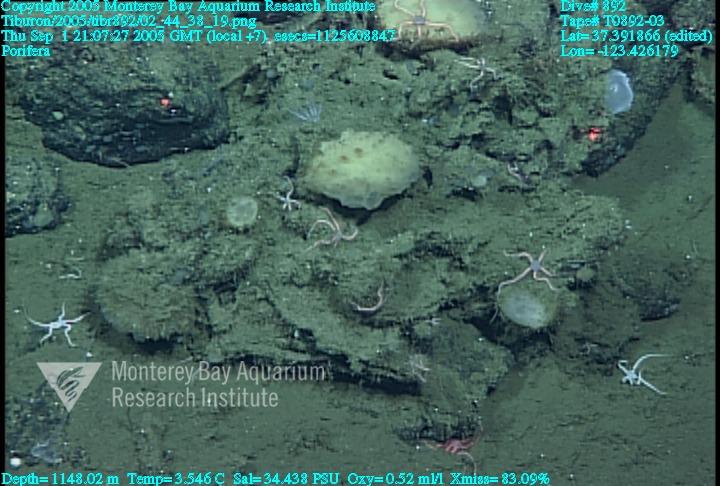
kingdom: Animalia
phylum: Porifera
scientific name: Porifera
